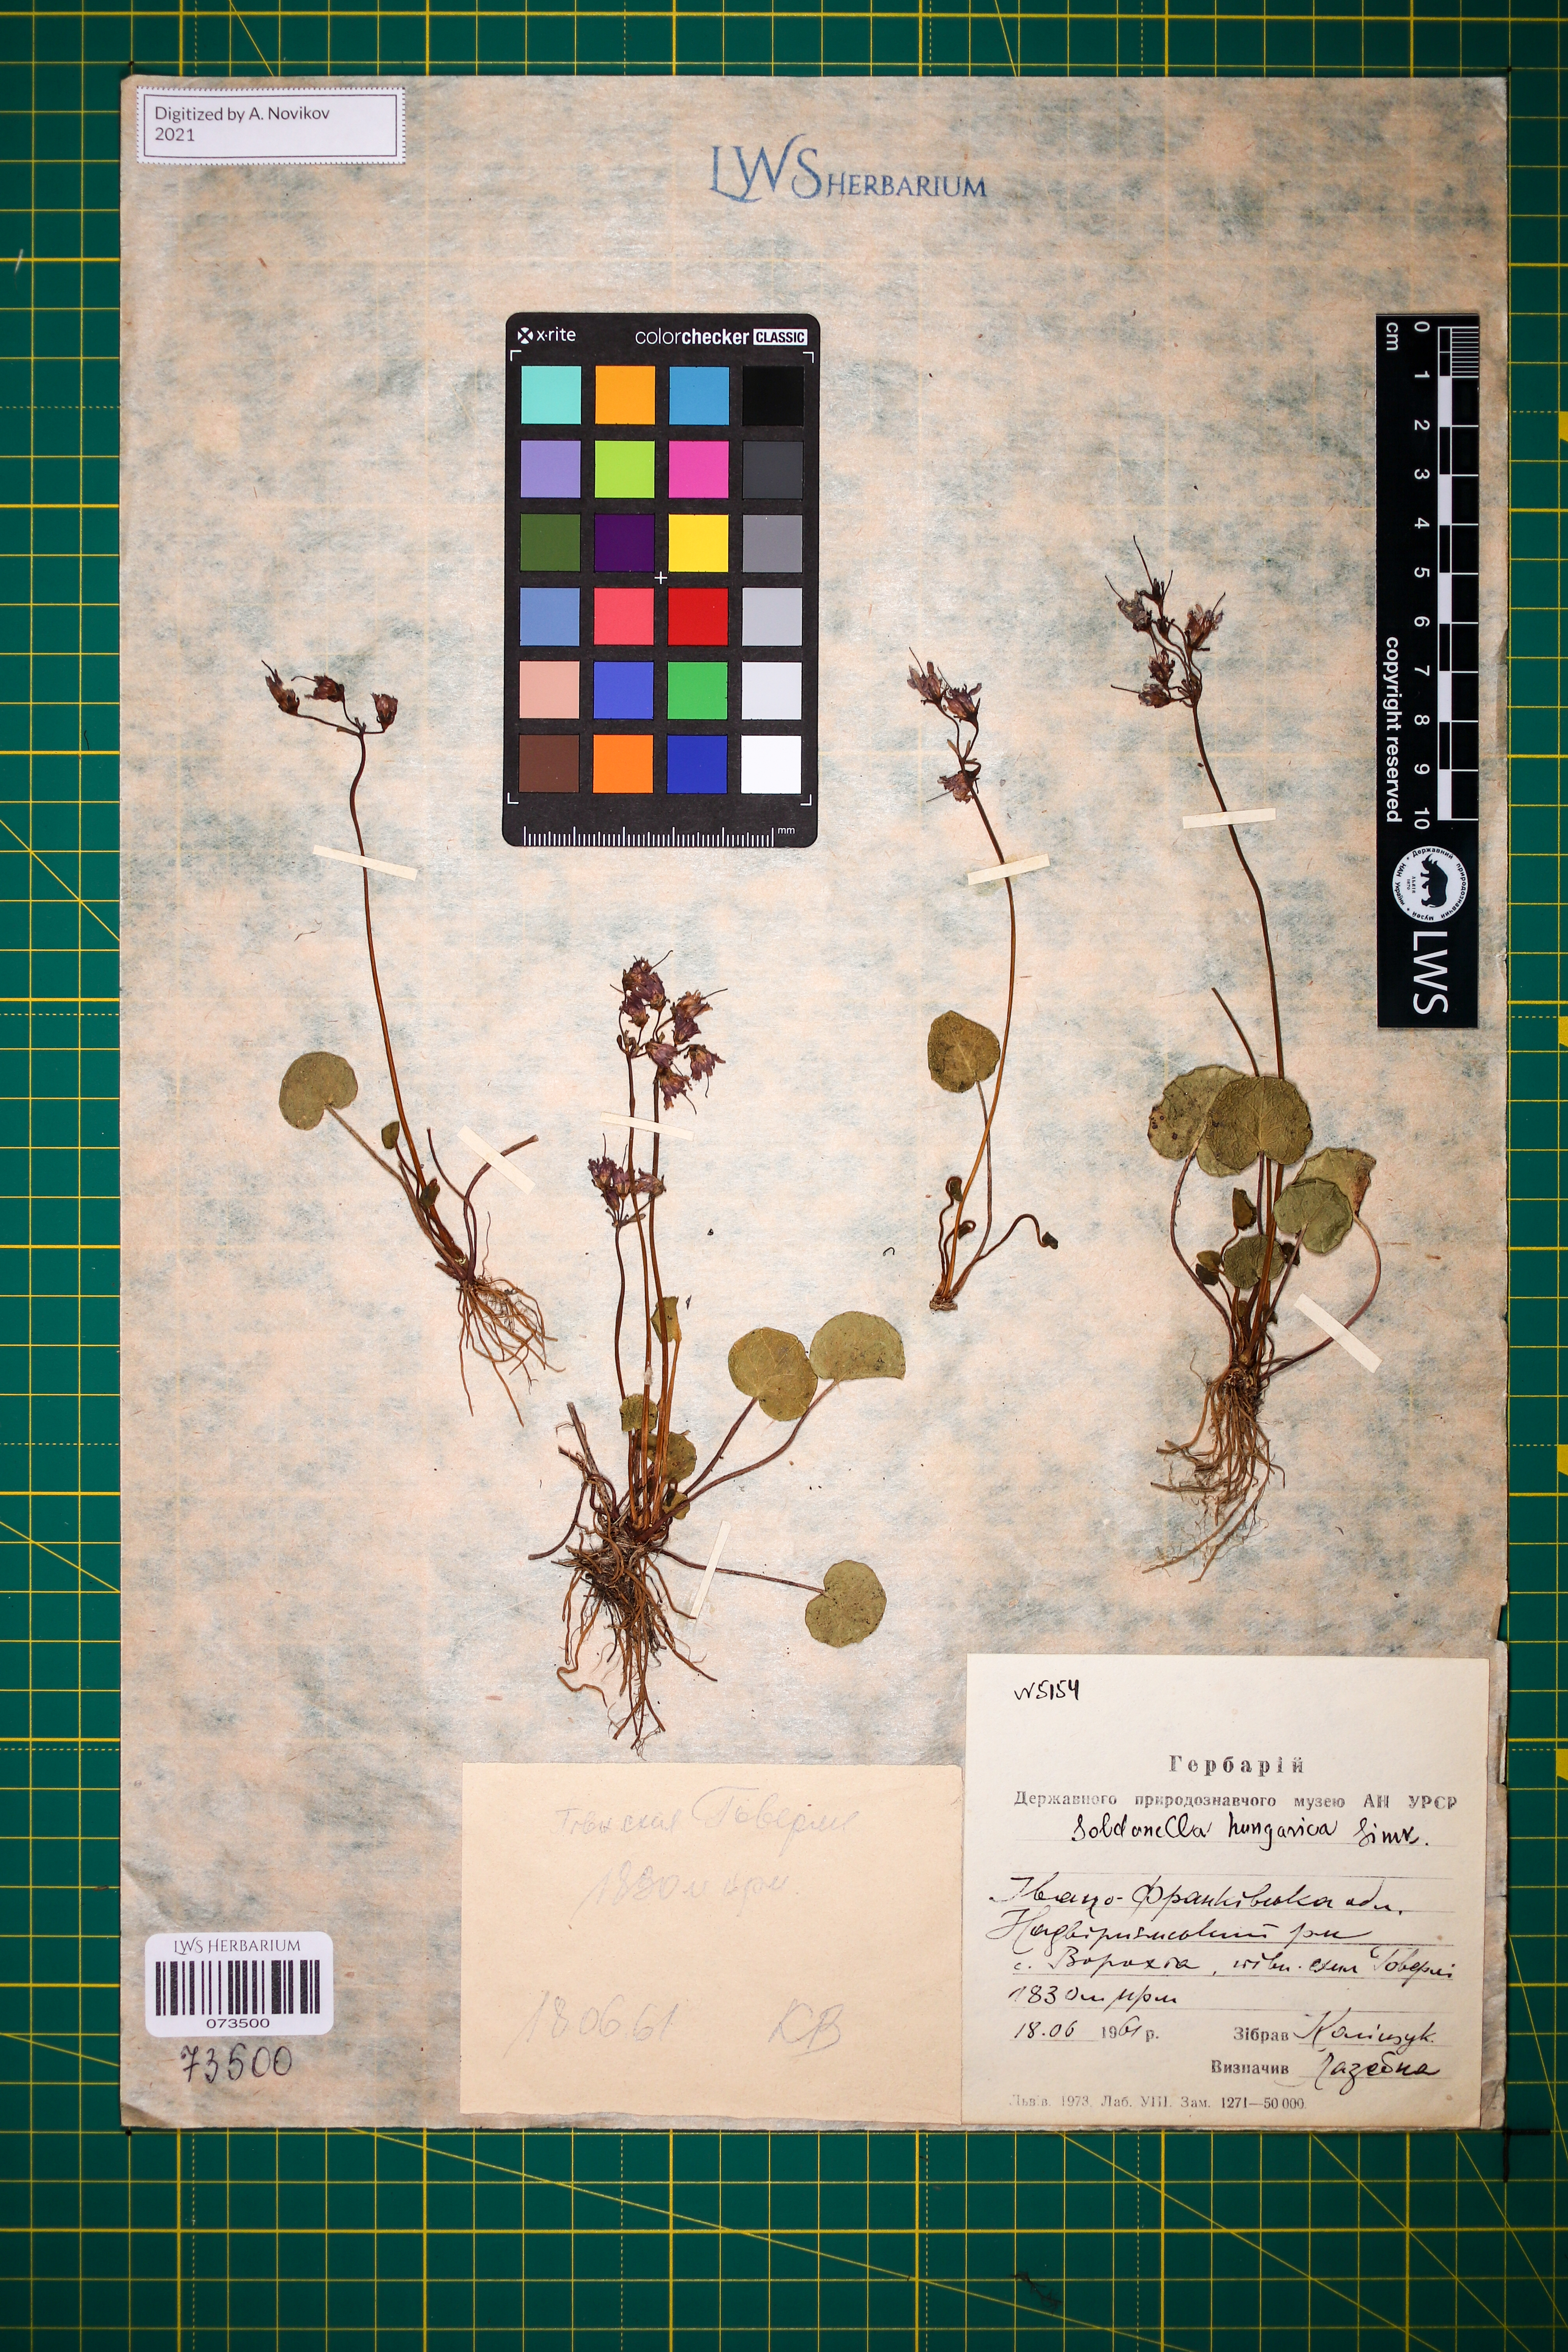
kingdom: Plantae
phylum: Tracheophyta
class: Magnoliopsida
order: Ericales
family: Primulaceae
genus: Soldanella
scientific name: Soldanella hungarica
